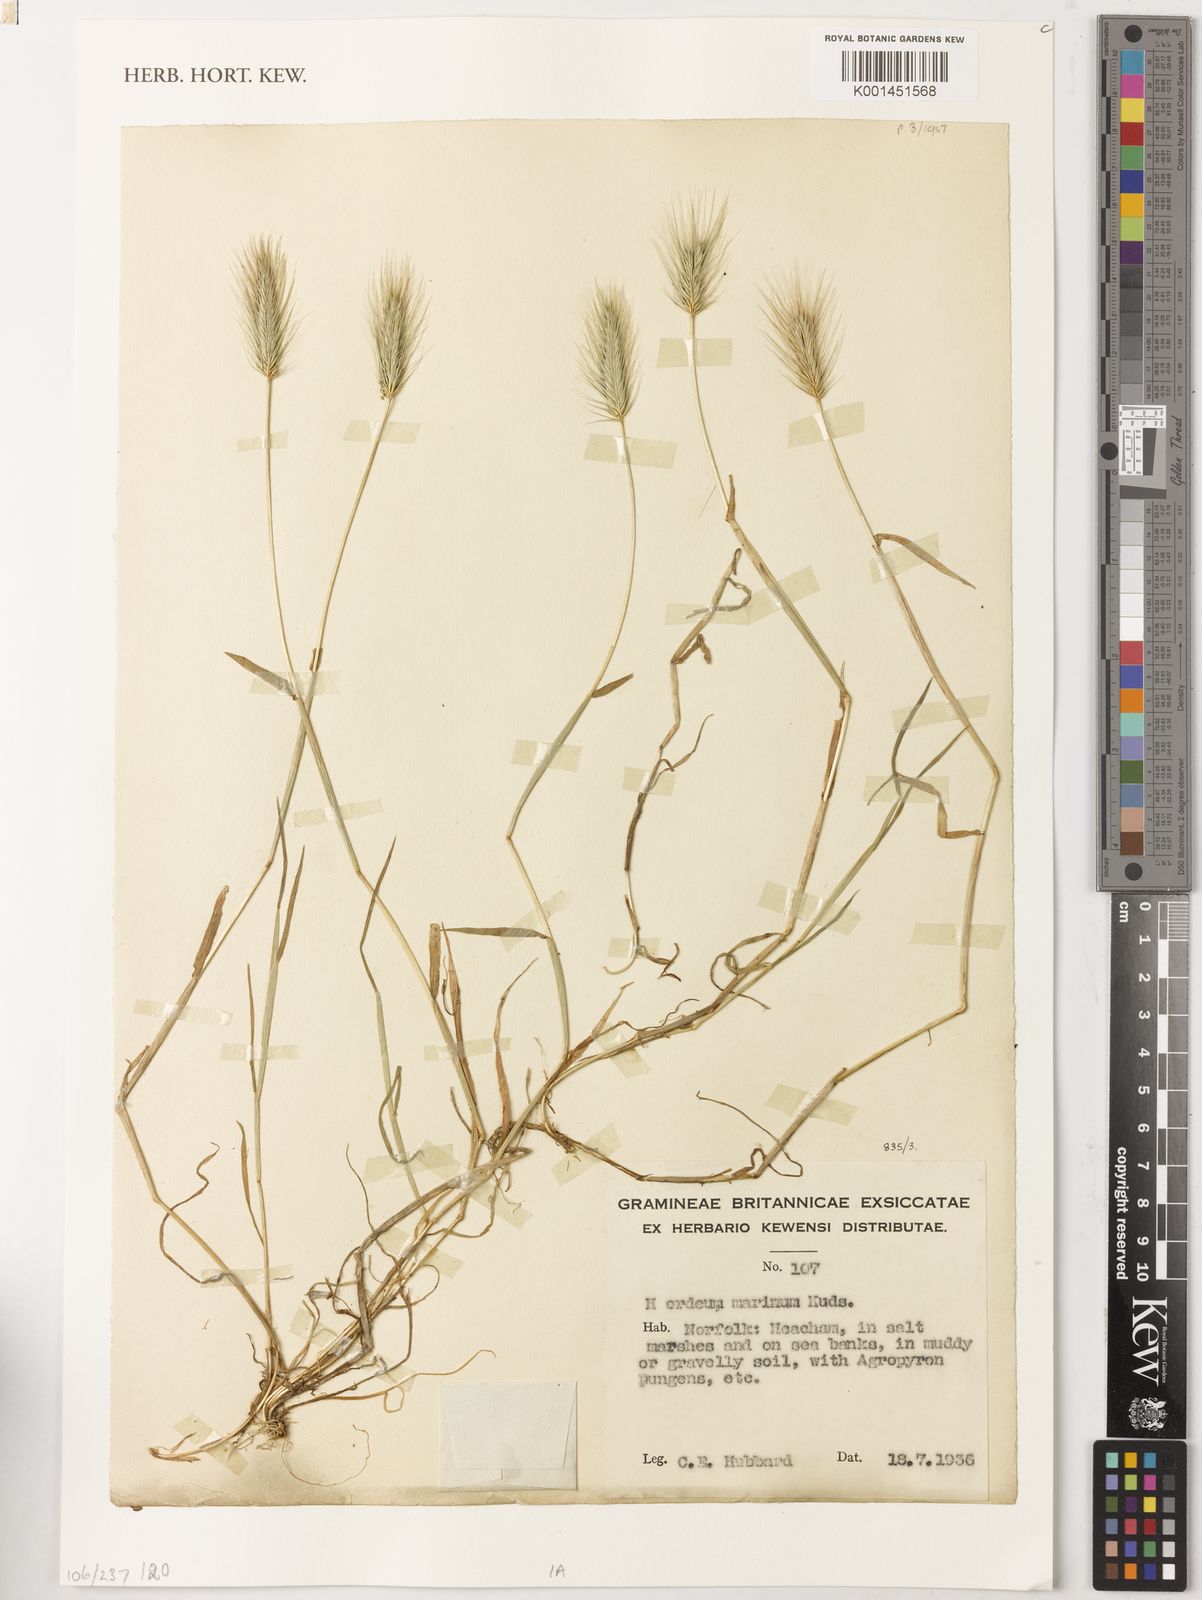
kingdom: Plantae
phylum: Tracheophyta
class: Liliopsida
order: Poales
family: Poaceae
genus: Hordeum
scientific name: Hordeum marinum
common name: Sea barley
